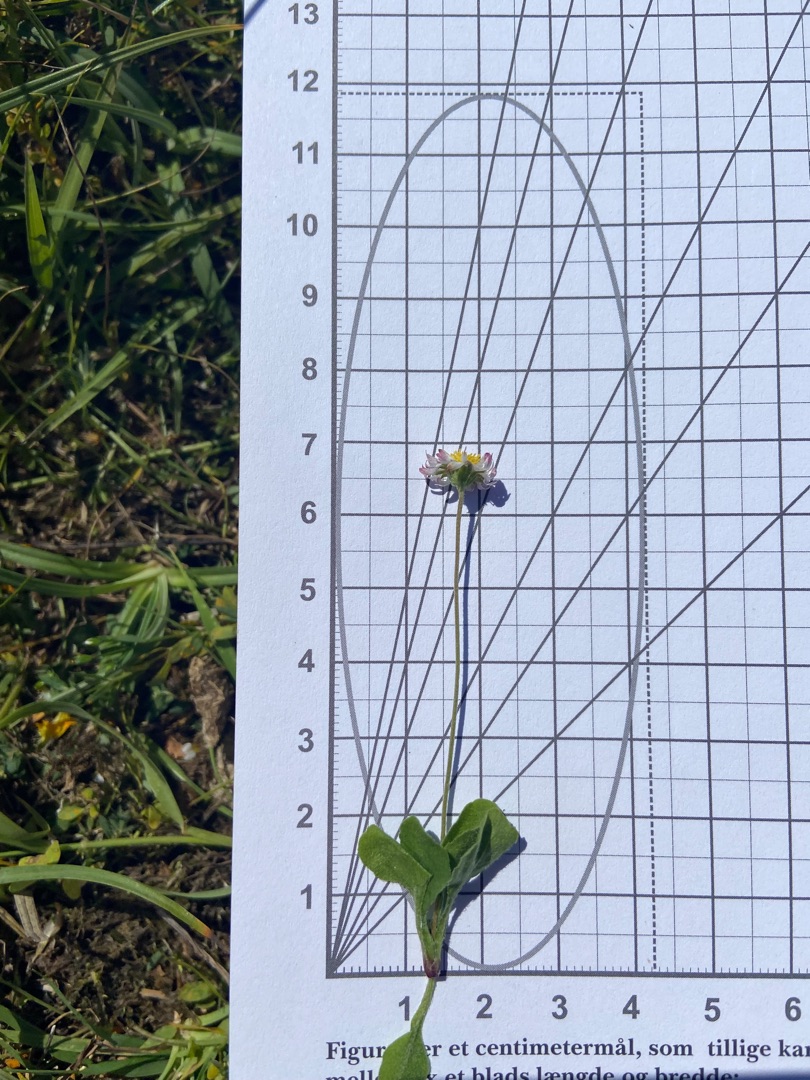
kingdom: Plantae
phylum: Tracheophyta
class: Magnoliopsida
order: Asterales
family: Asteraceae
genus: Bellis
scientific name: Bellis perennis
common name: Tusindfryd
